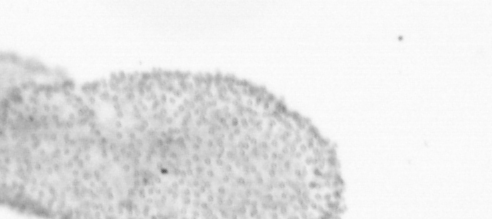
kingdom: Animalia
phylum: Chordata
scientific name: Chordata
